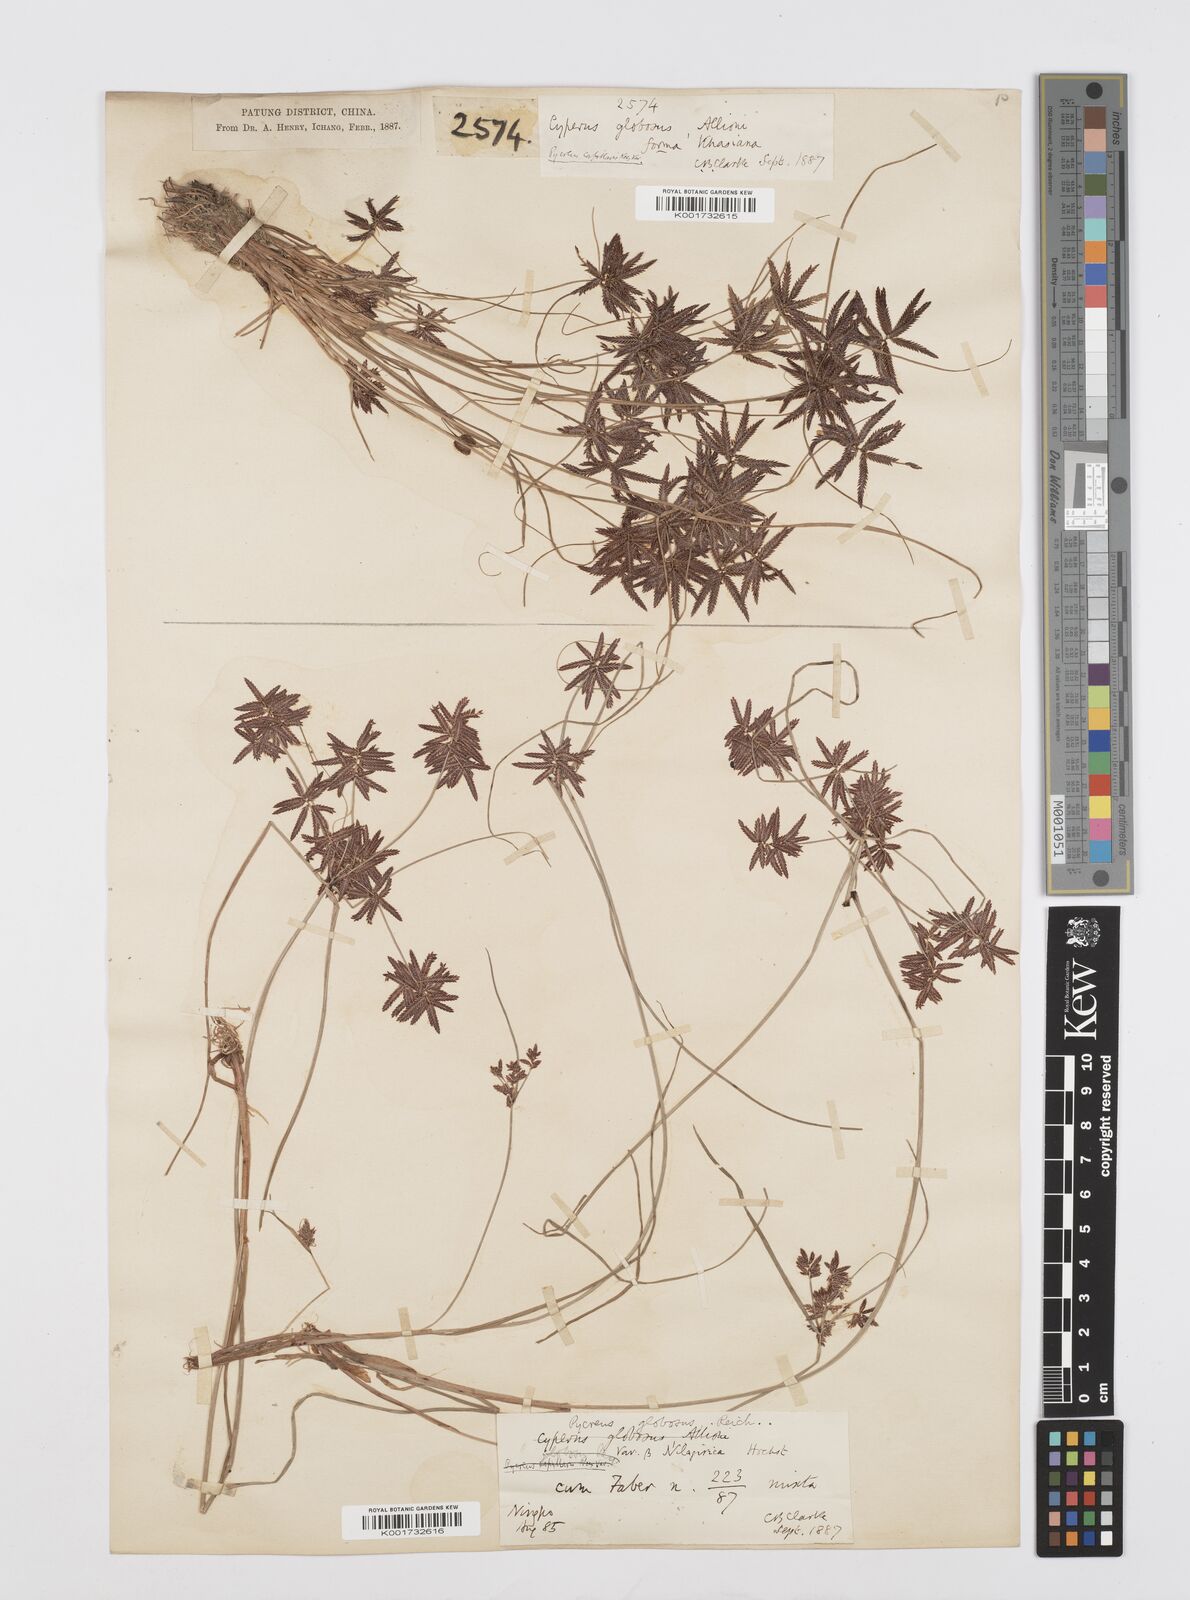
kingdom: Plantae
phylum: Tracheophyta
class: Liliopsida
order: Poales
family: Cyperaceae
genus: Cyperus
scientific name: Cyperus flavidus
